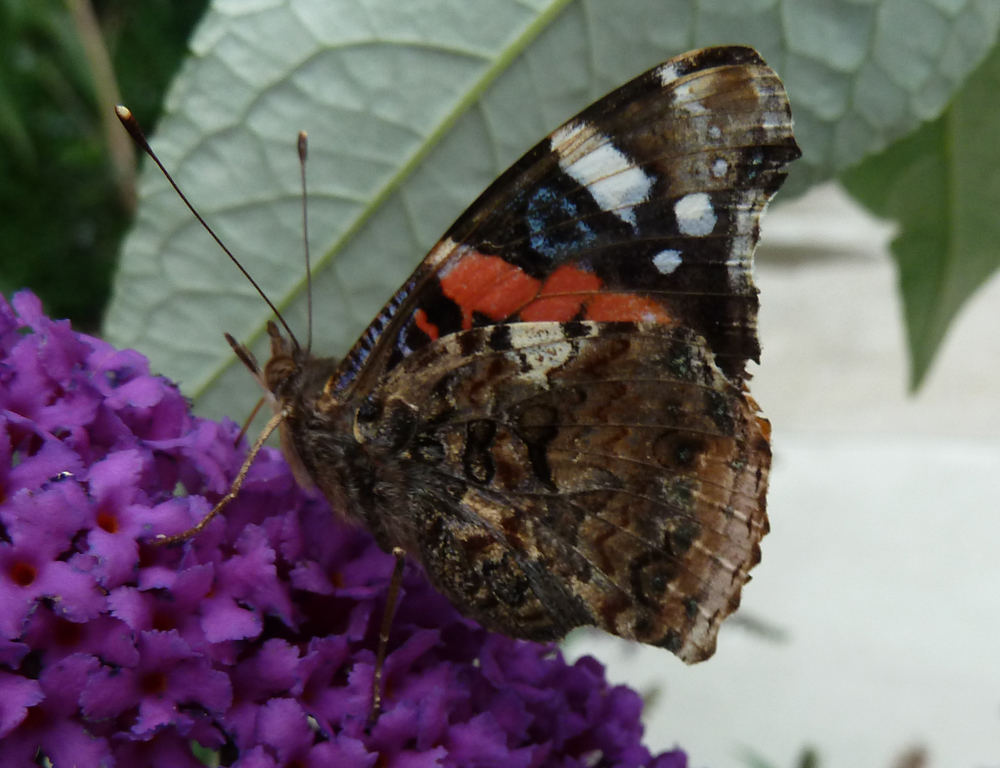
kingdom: Animalia
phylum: Arthropoda
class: Insecta
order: Lepidoptera
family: Nymphalidae
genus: Vanessa
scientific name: Vanessa atalanta
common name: Red admiral
